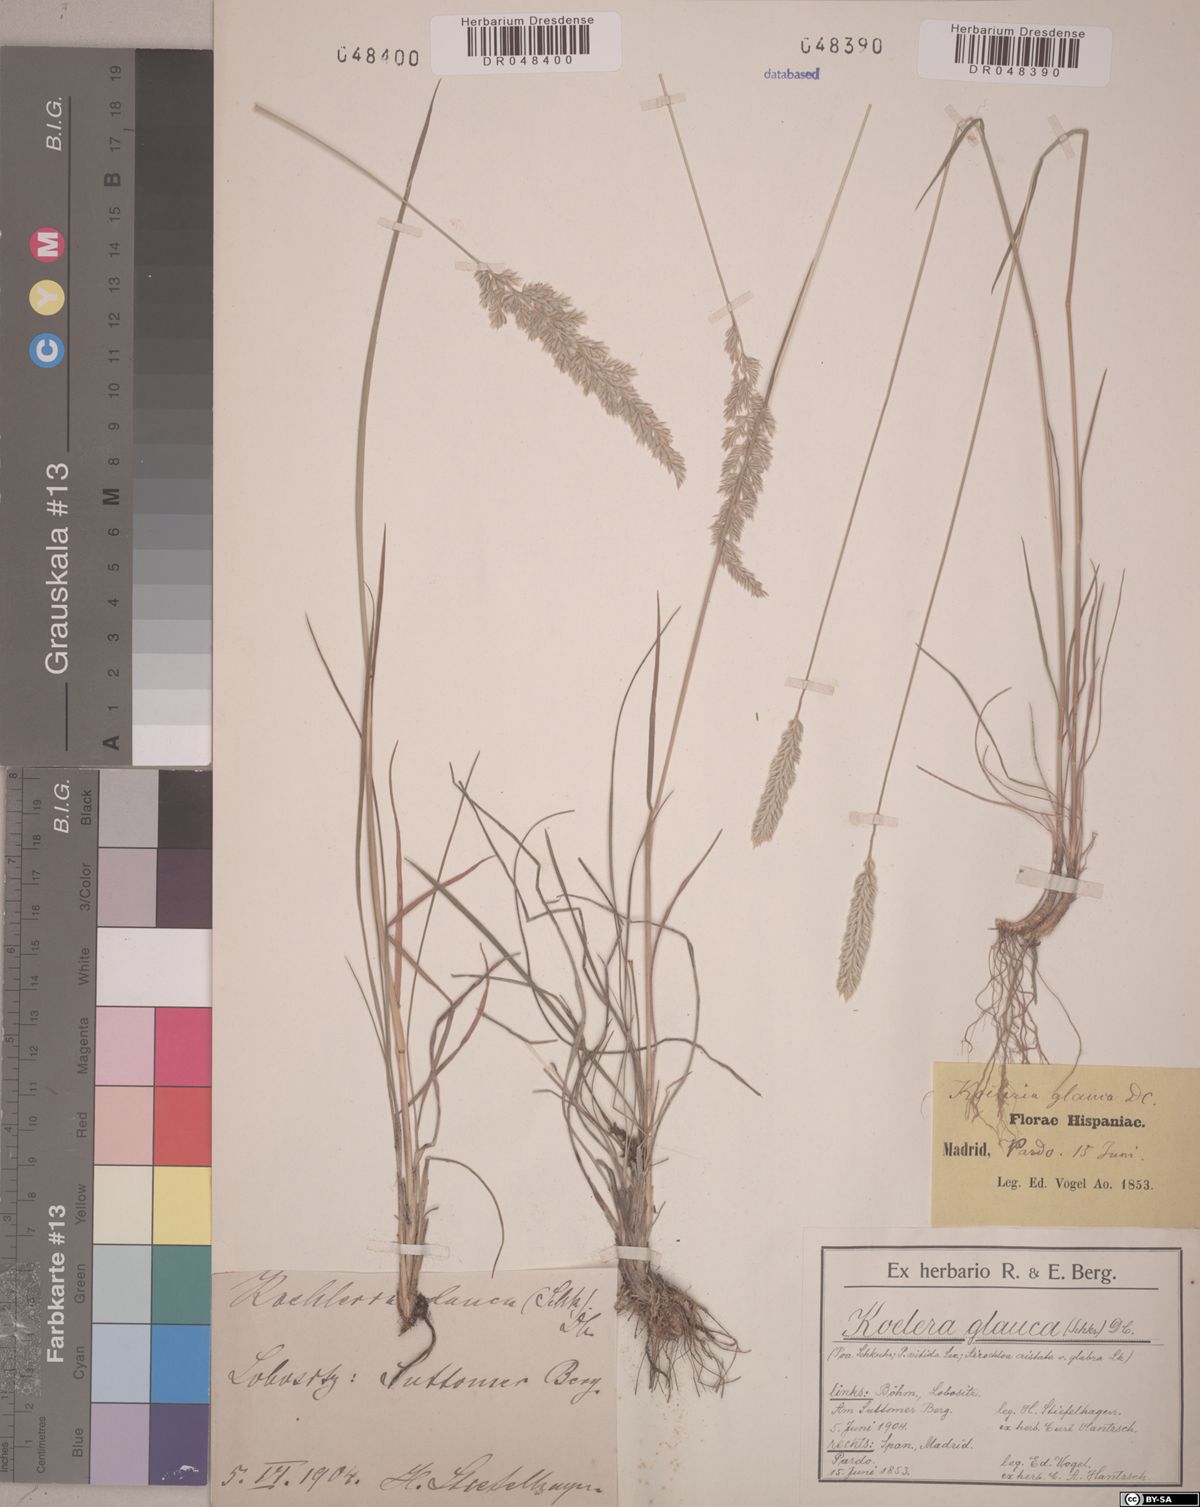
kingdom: Plantae
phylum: Tracheophyta
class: Liliopsida
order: Poales
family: Poaceae
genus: Koeleria
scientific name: Koeleria glauca
